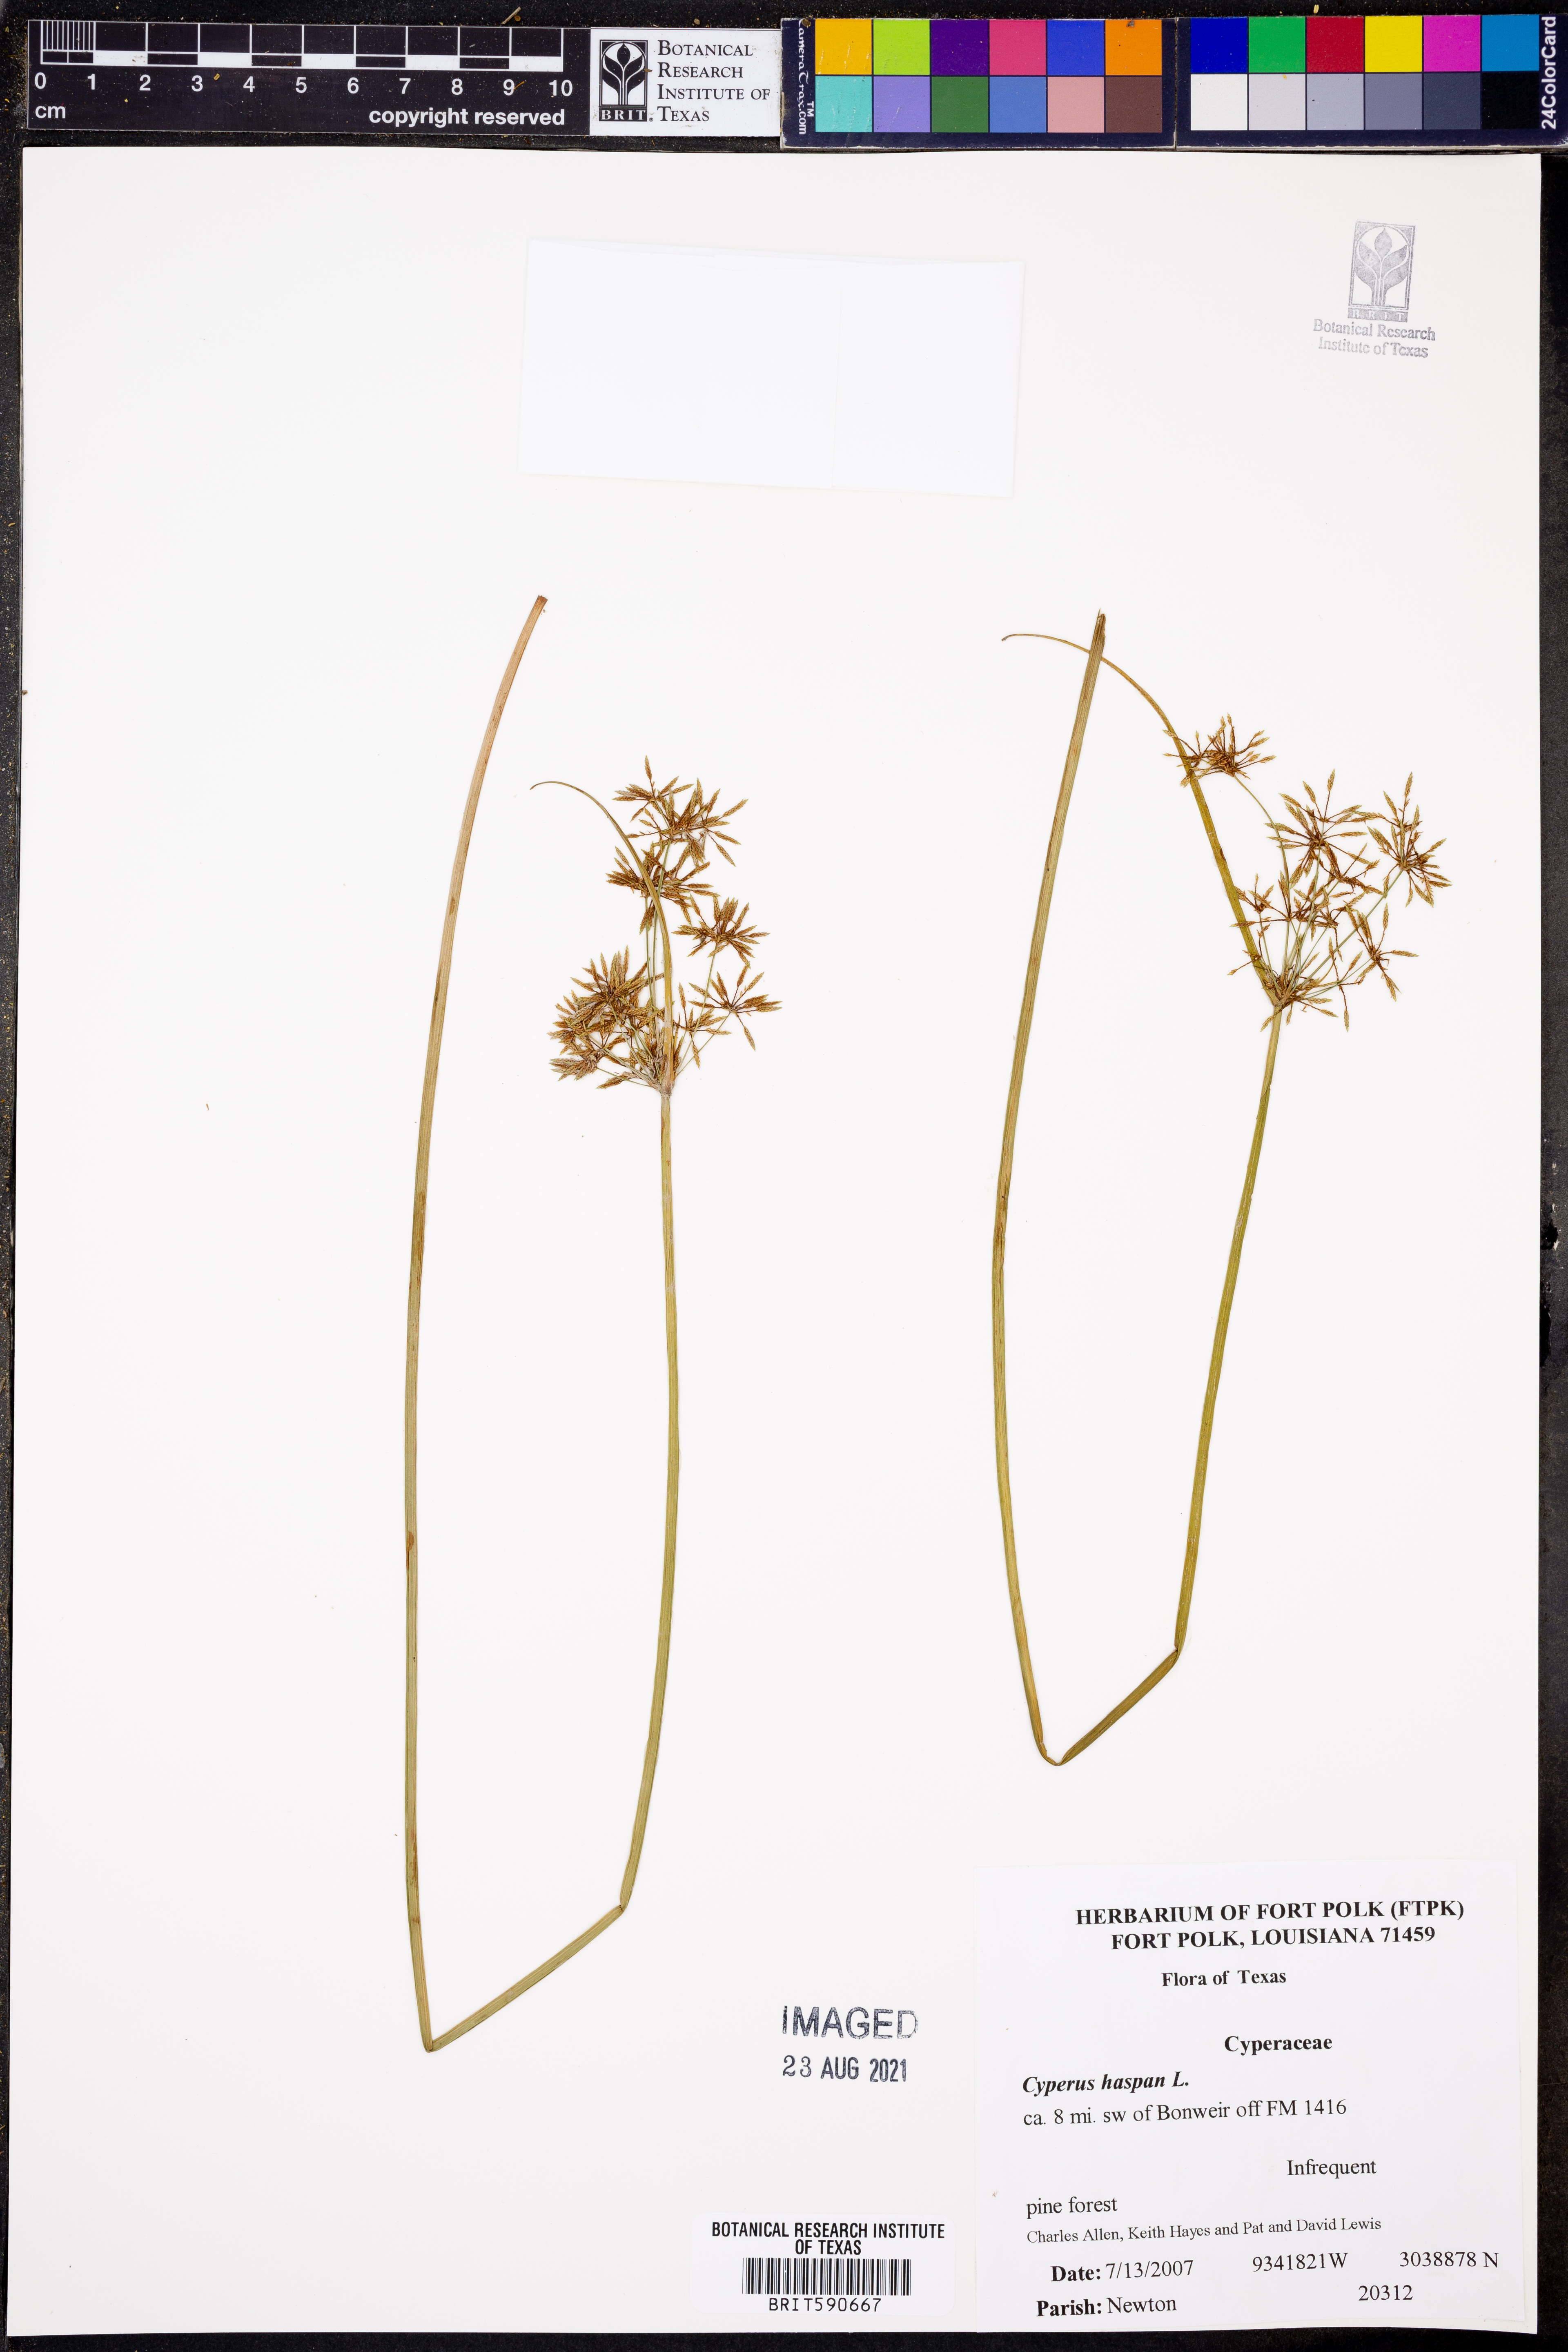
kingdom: Plantae
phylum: Tracheophyta
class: Liliopsida
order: Poales
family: Cyperaceae
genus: Cyperus
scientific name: Cyperus haspan
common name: Haspan flatsedge
